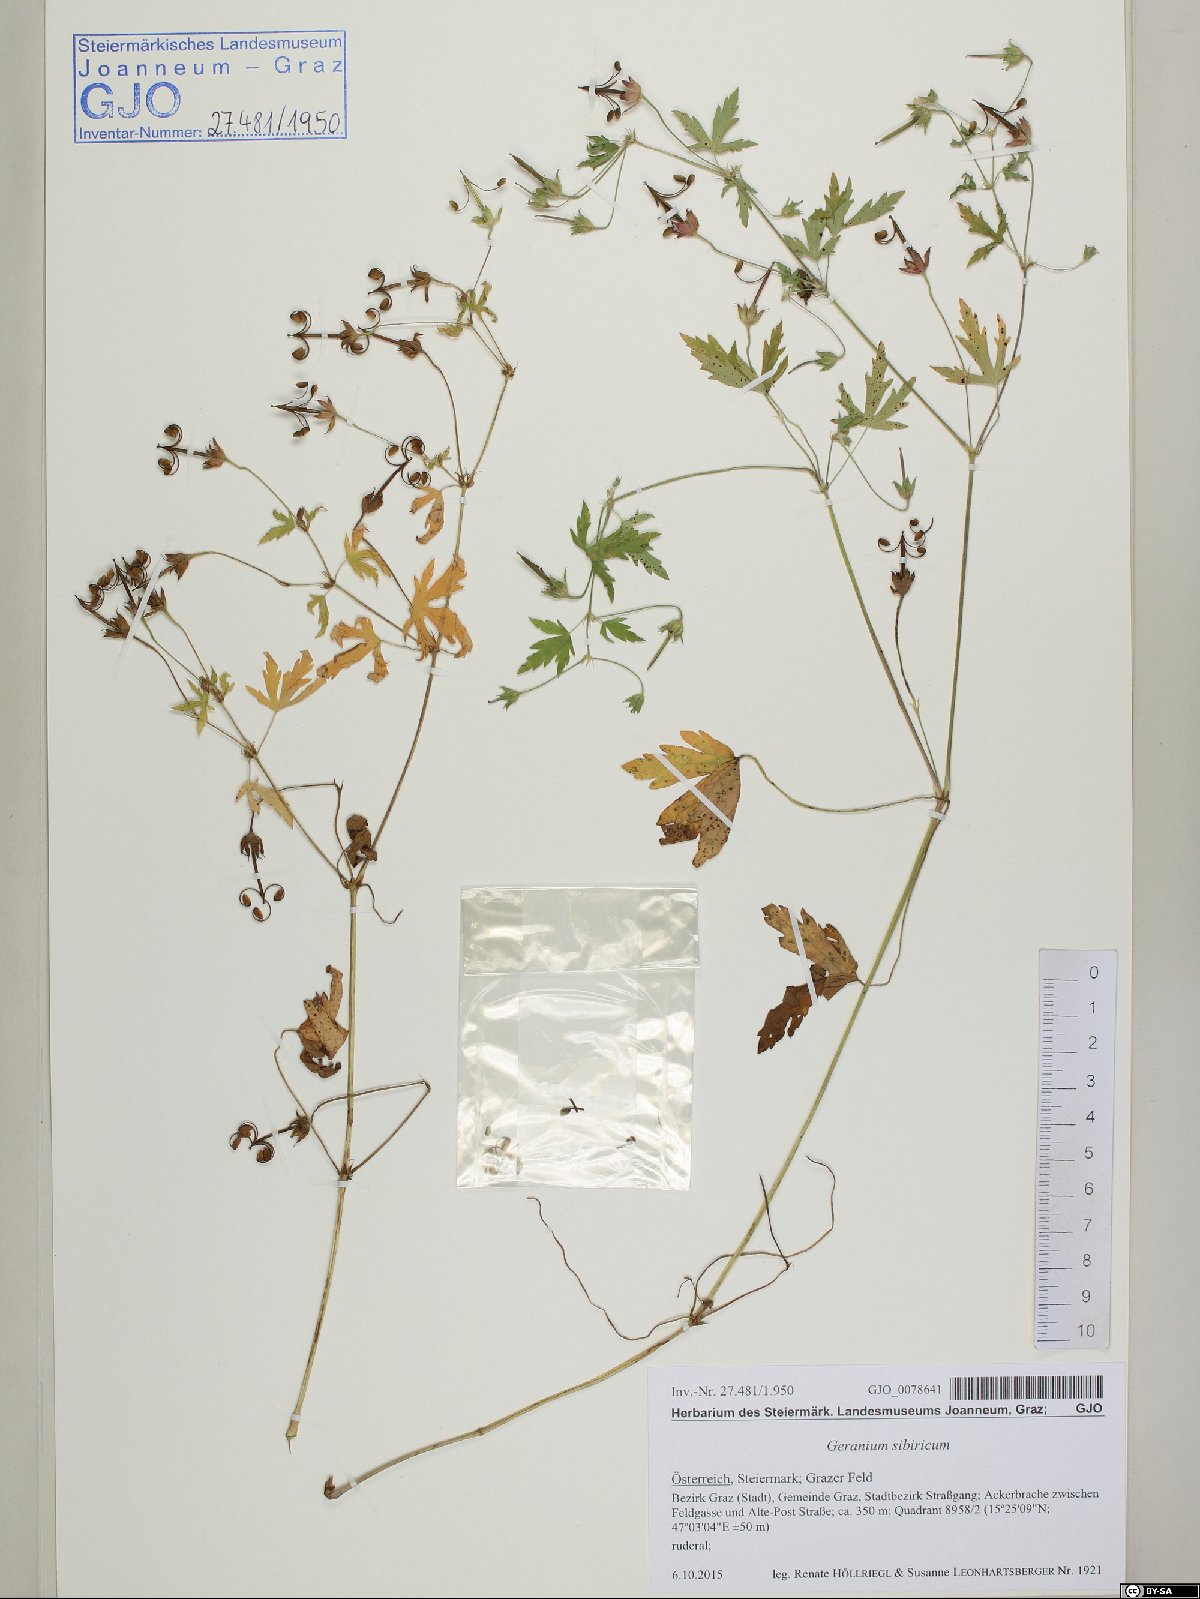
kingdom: Plantae
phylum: Tracheophyta
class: Magnoliopsida
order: Geraniales
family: Geraniaceae
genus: Geranium
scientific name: Geranium sibiricum
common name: Siberian crane's-bill
